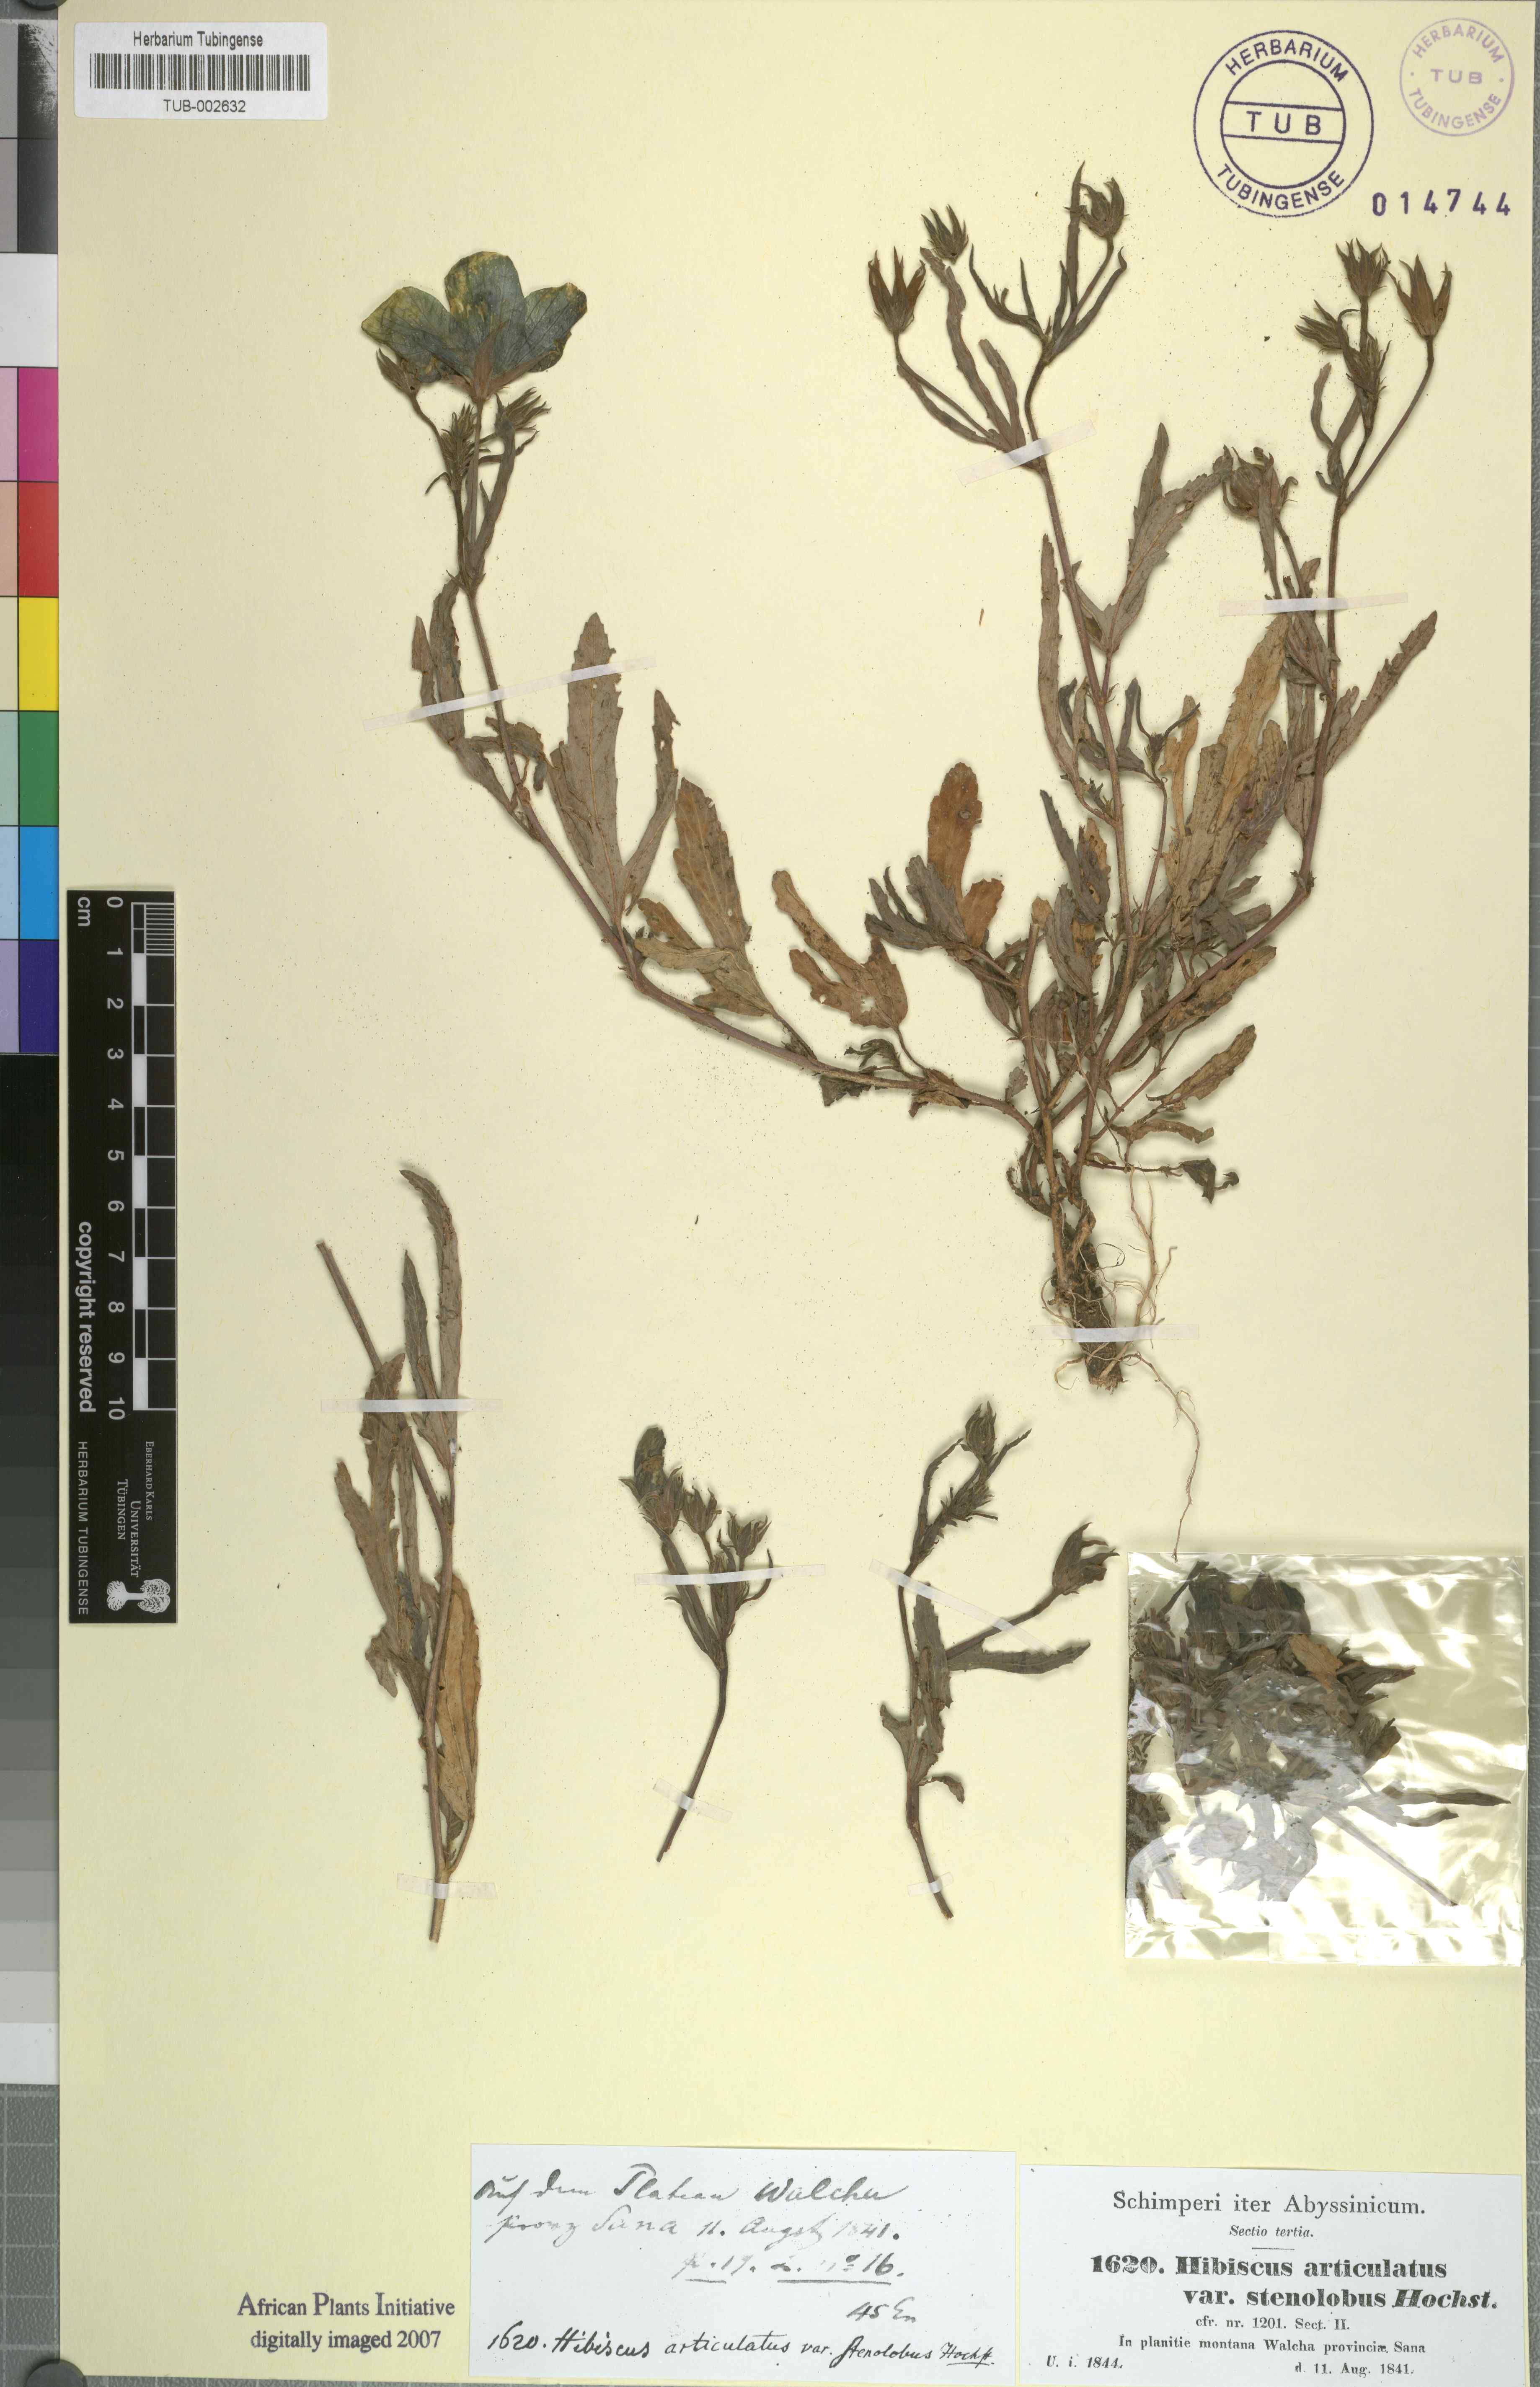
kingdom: Plantae
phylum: Tracheophyta
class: Magnoliopsida
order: Malvales
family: Malvaceae
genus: Hibiscus
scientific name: Hibiscus articulatus
